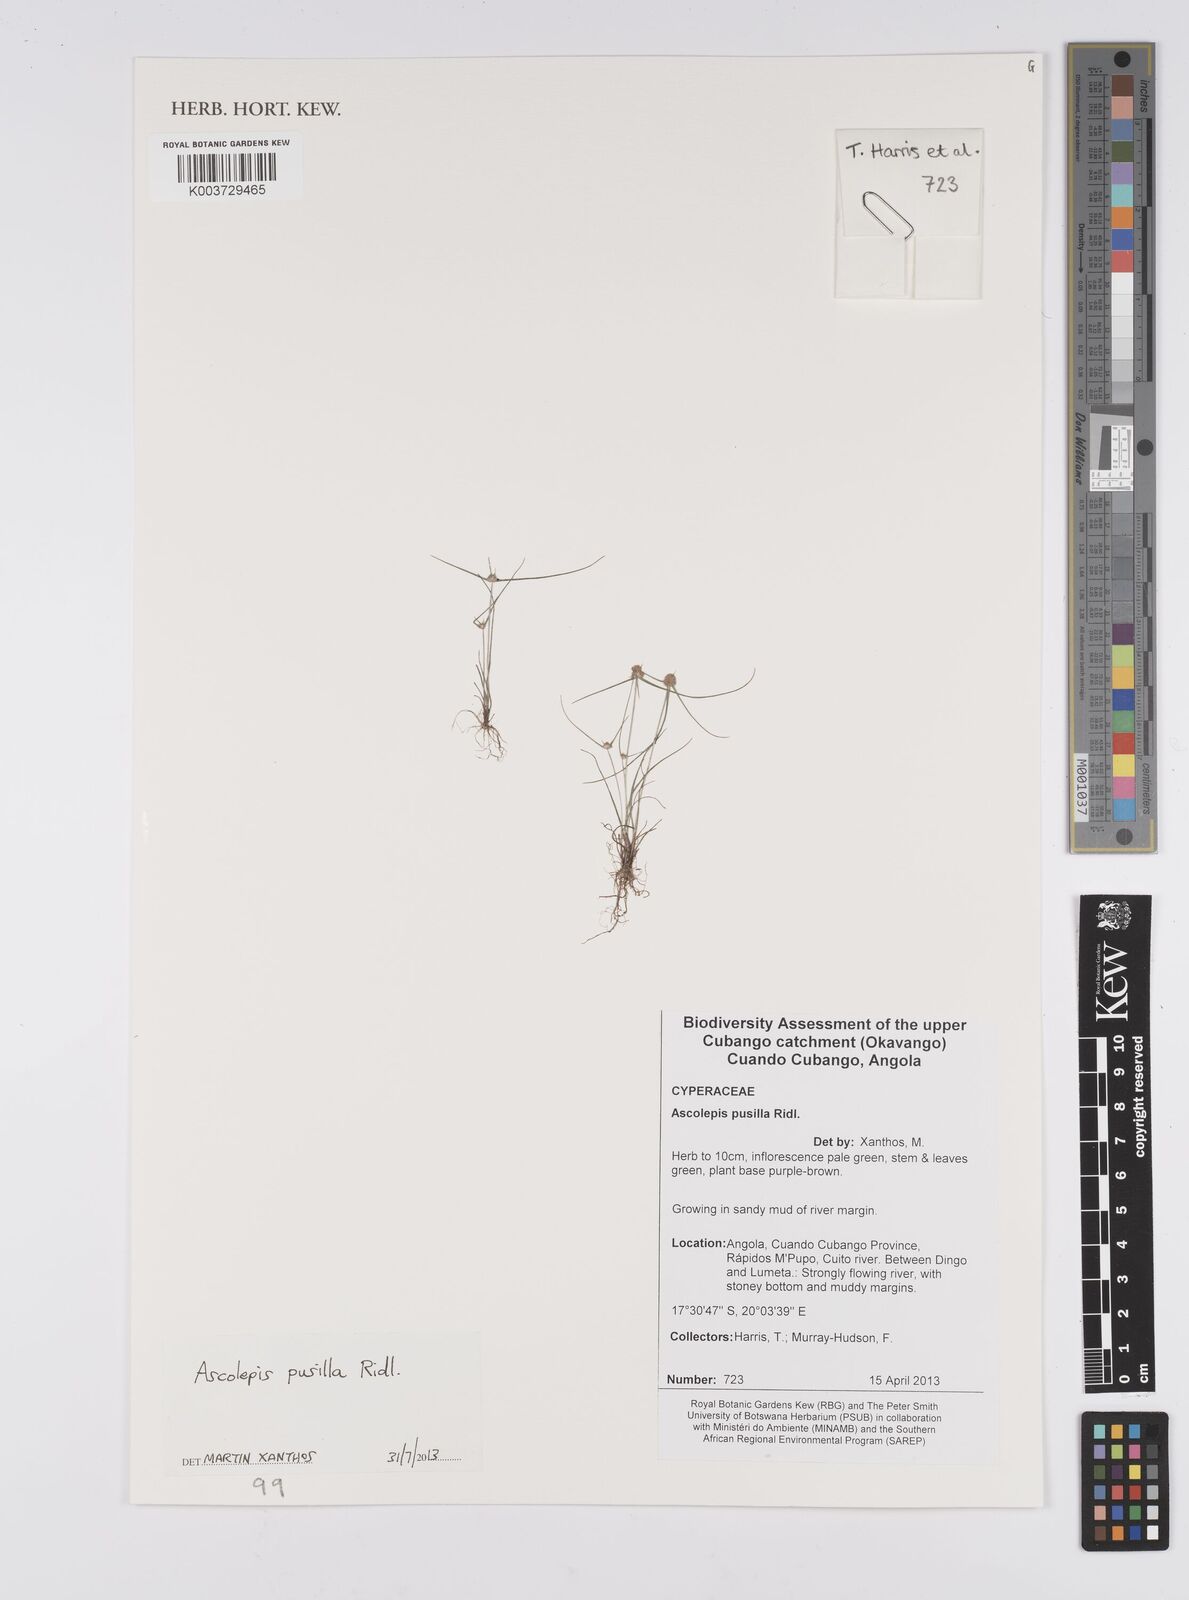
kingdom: Plantae
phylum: Tracheophyta
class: Liliopsida
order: Poales
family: Cyperaceae
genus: Cyperus
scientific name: Cyperus
